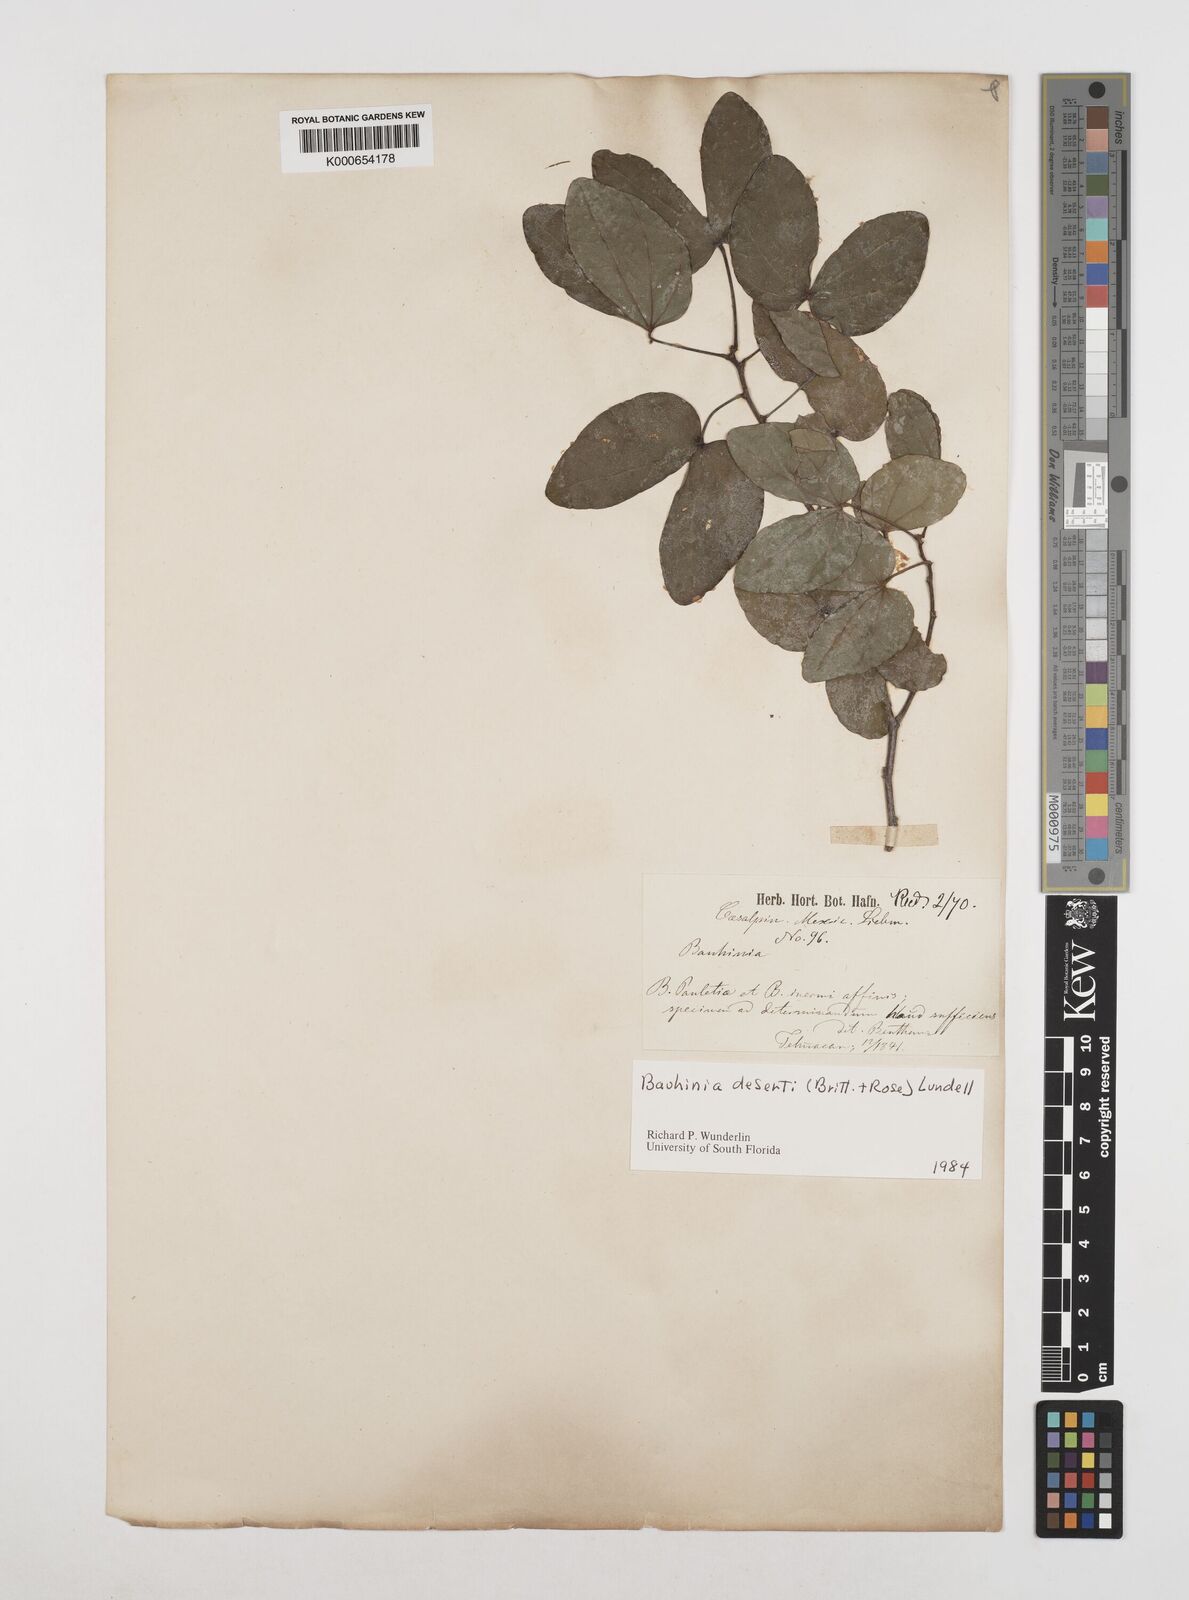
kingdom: Plantae
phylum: Tracheophyta
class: Magnoliopsida
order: Fabales
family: Fabaceae
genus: Bauhinia
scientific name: Bauhinia deserti
